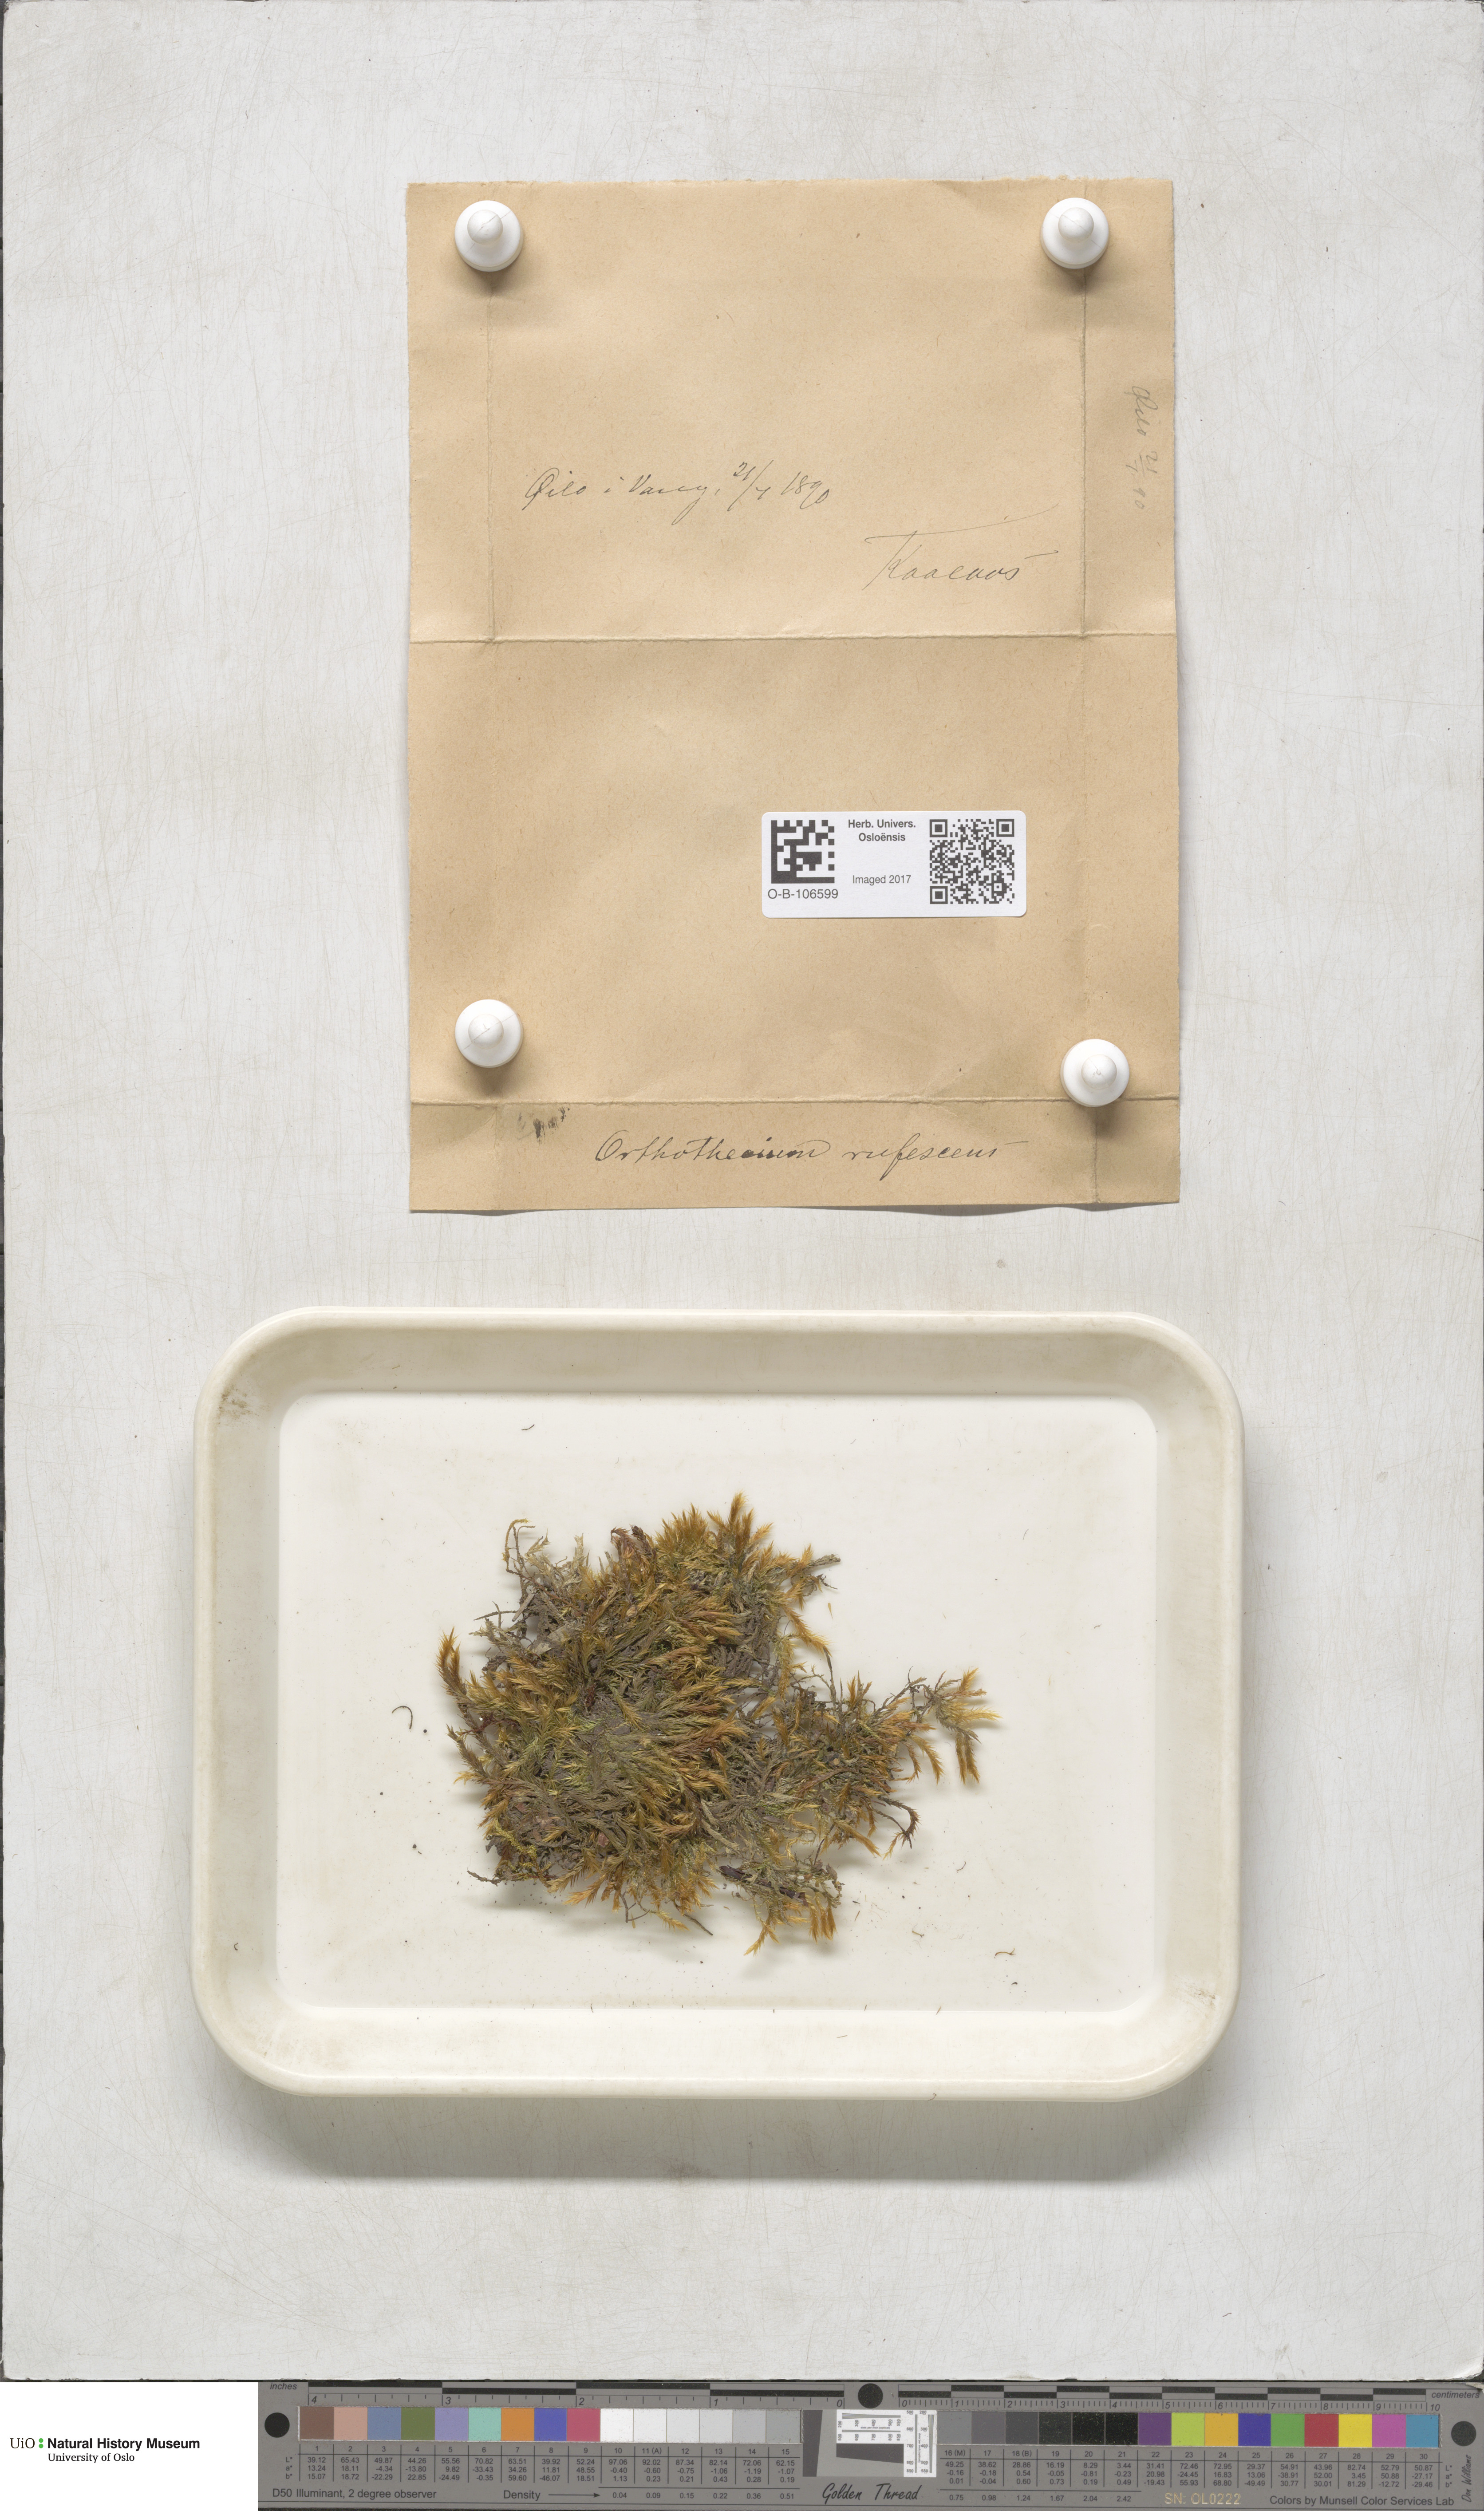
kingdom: Plantae
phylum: Bryophyta
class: Bryopsida
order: Hypnales
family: Plagiotheciaceae
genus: Orthothecium
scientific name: Orthothecium rufescens
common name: Red leskea
